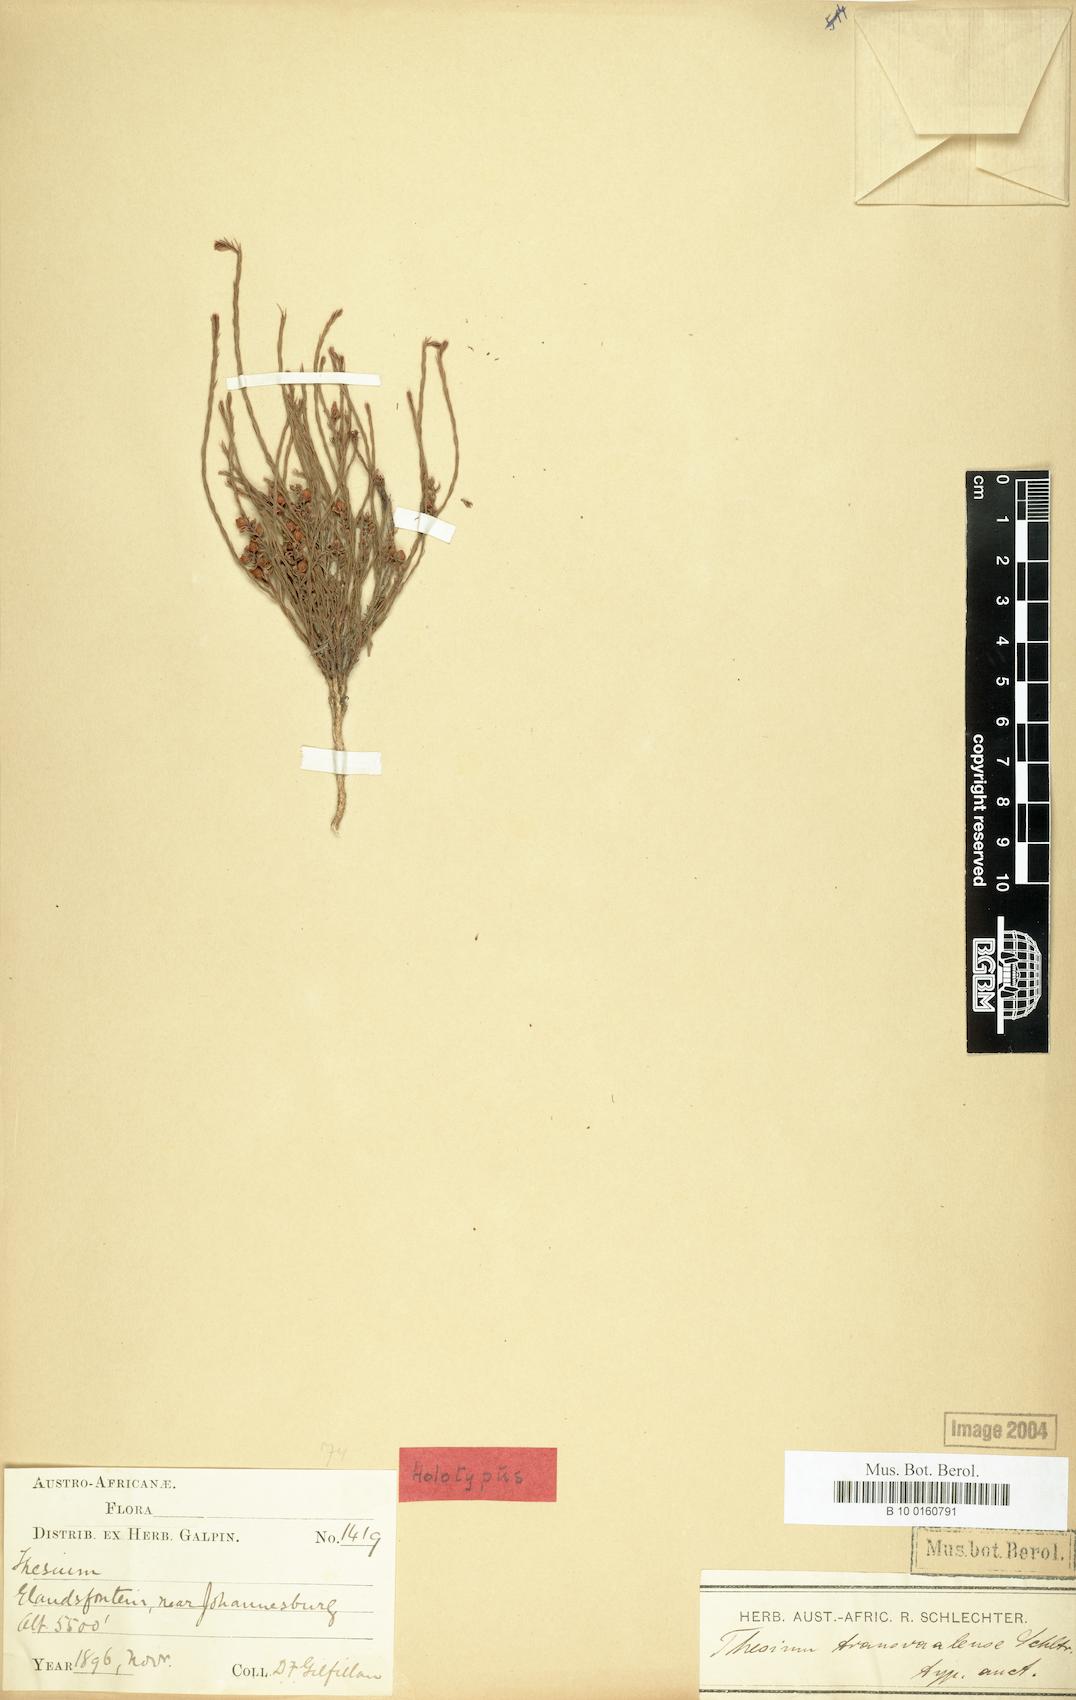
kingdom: Plantae
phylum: Tracheophyta
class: Magnoliopsida
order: Santalales
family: Thesiaceae
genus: Thesium
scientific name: Thesium transvaalense
